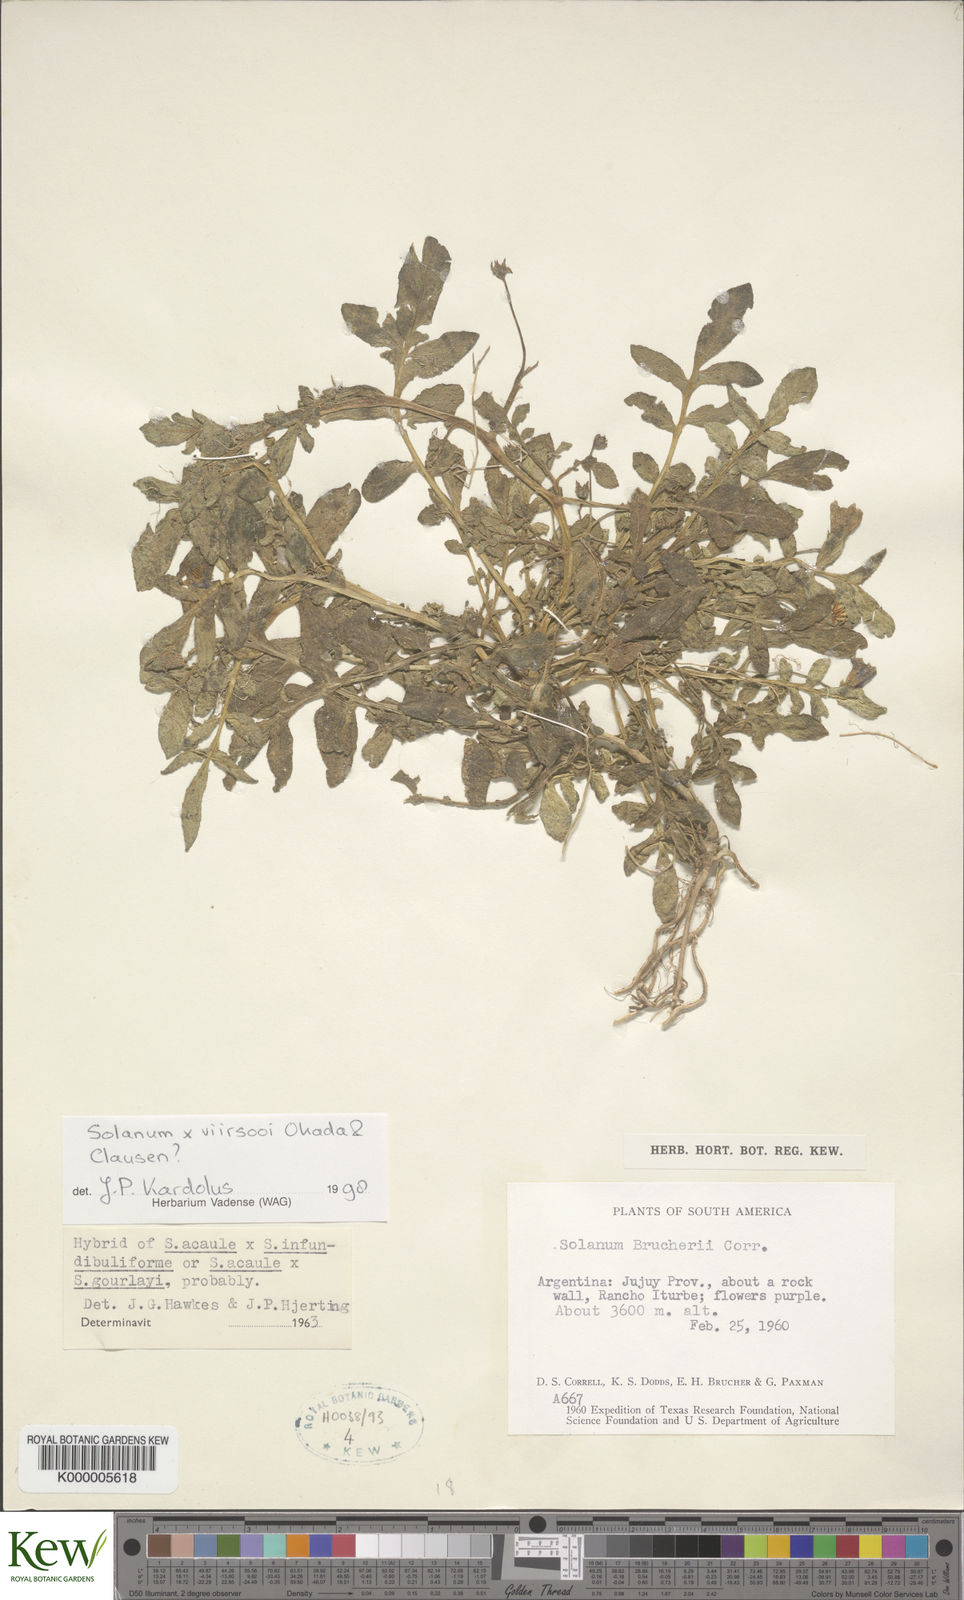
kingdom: Plantae
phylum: Tracheophyta
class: Magnoliopsida
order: Solanales
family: Solanaceae
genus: Solanum
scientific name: Solanum viirsooi
